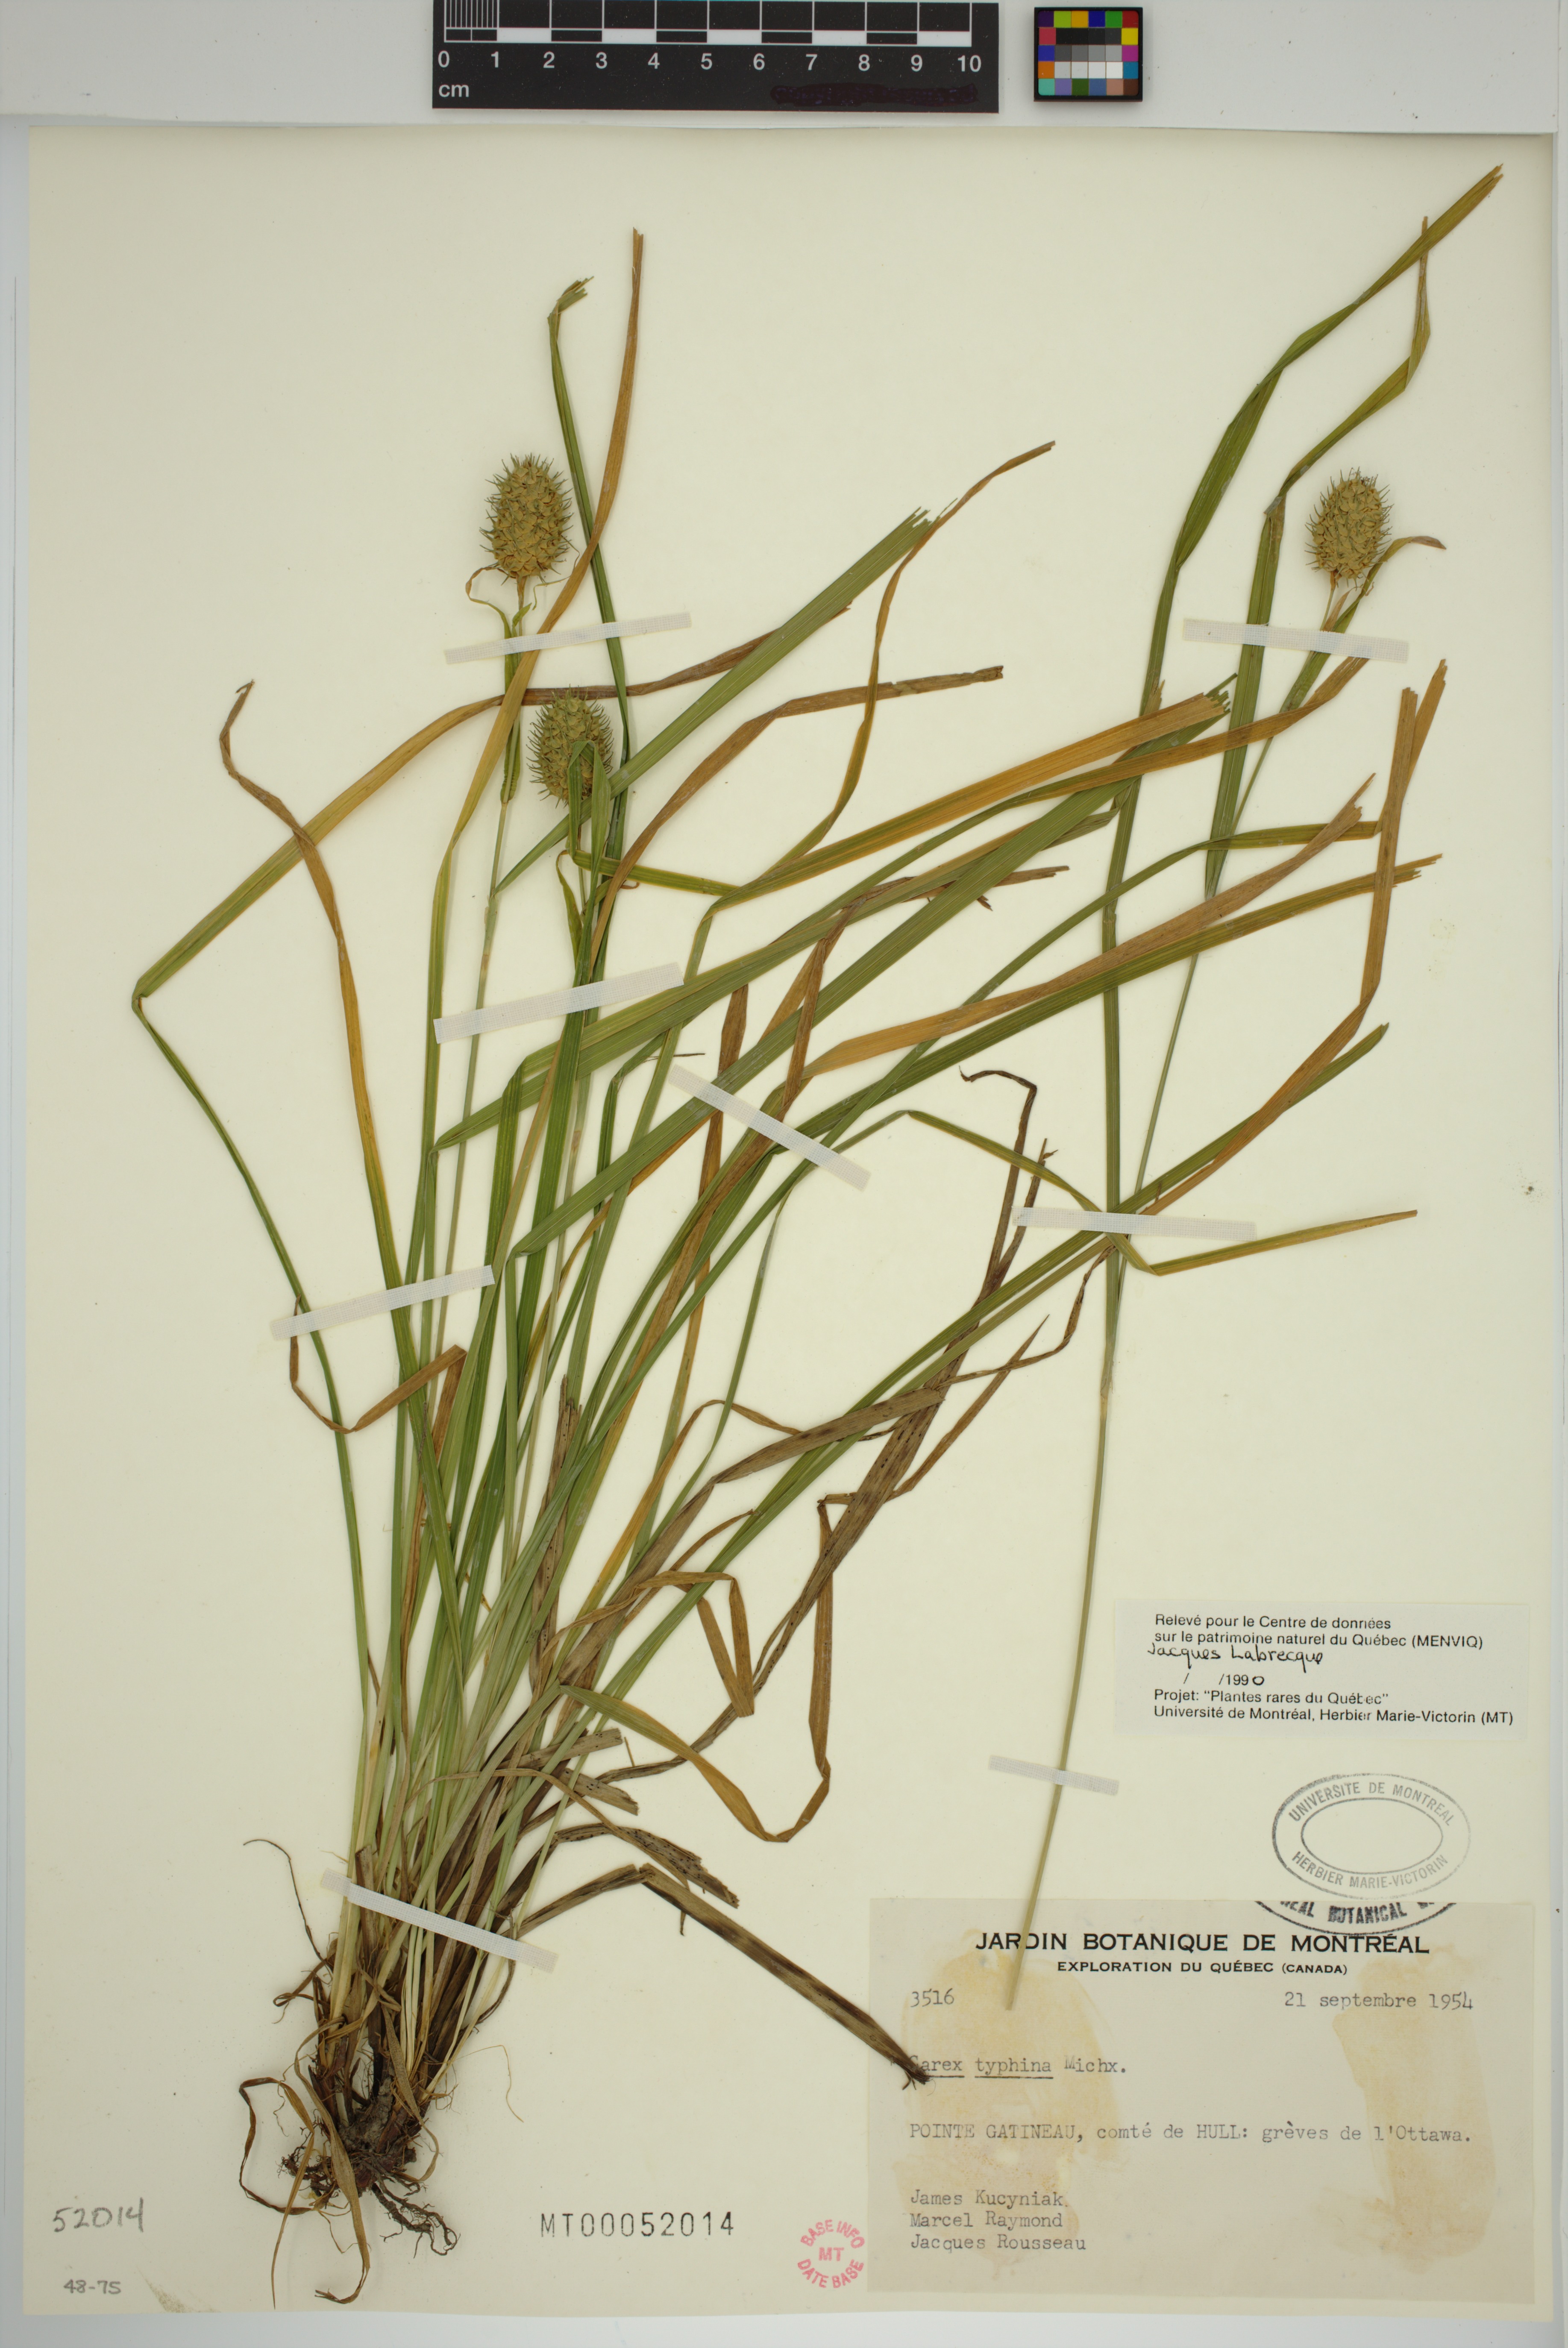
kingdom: Plantae
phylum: Tracheophyta
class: Liliopsida
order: Poales
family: Cyperaceae
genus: Carex
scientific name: Carex typhina
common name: Cattail sedge
